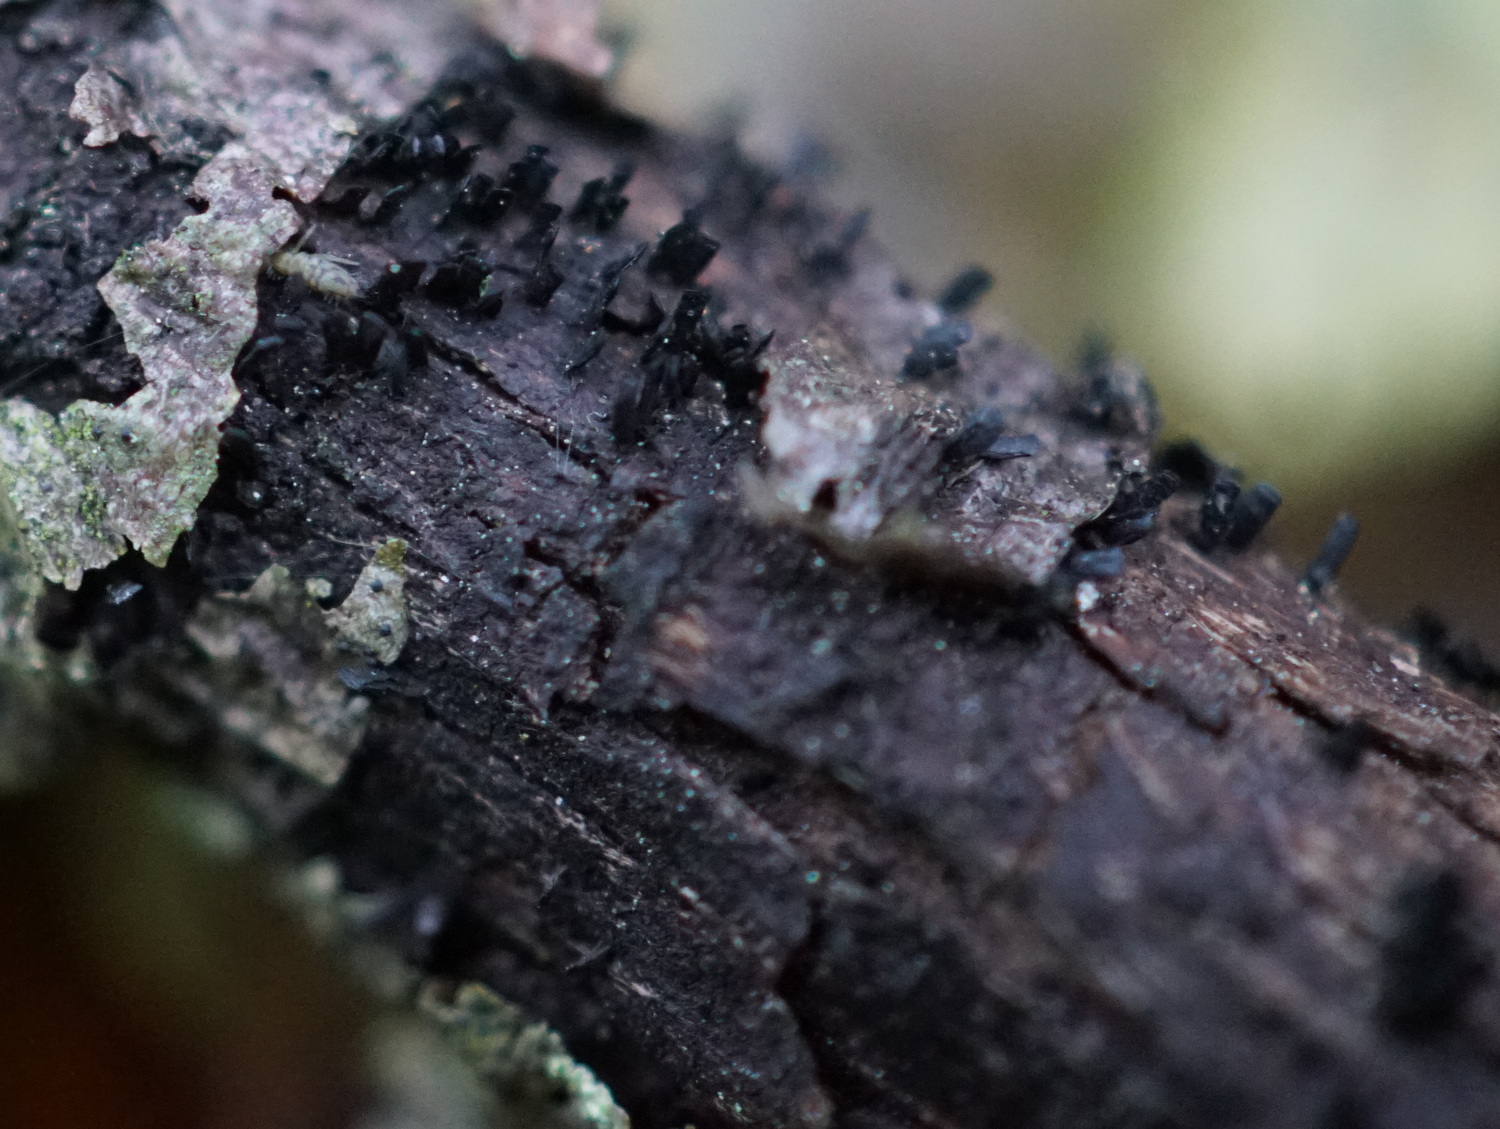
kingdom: Fungi
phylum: Ascomycota
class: Eurotiomycetes
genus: Glyphium
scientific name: Glyphium elatum
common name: kuløkse
